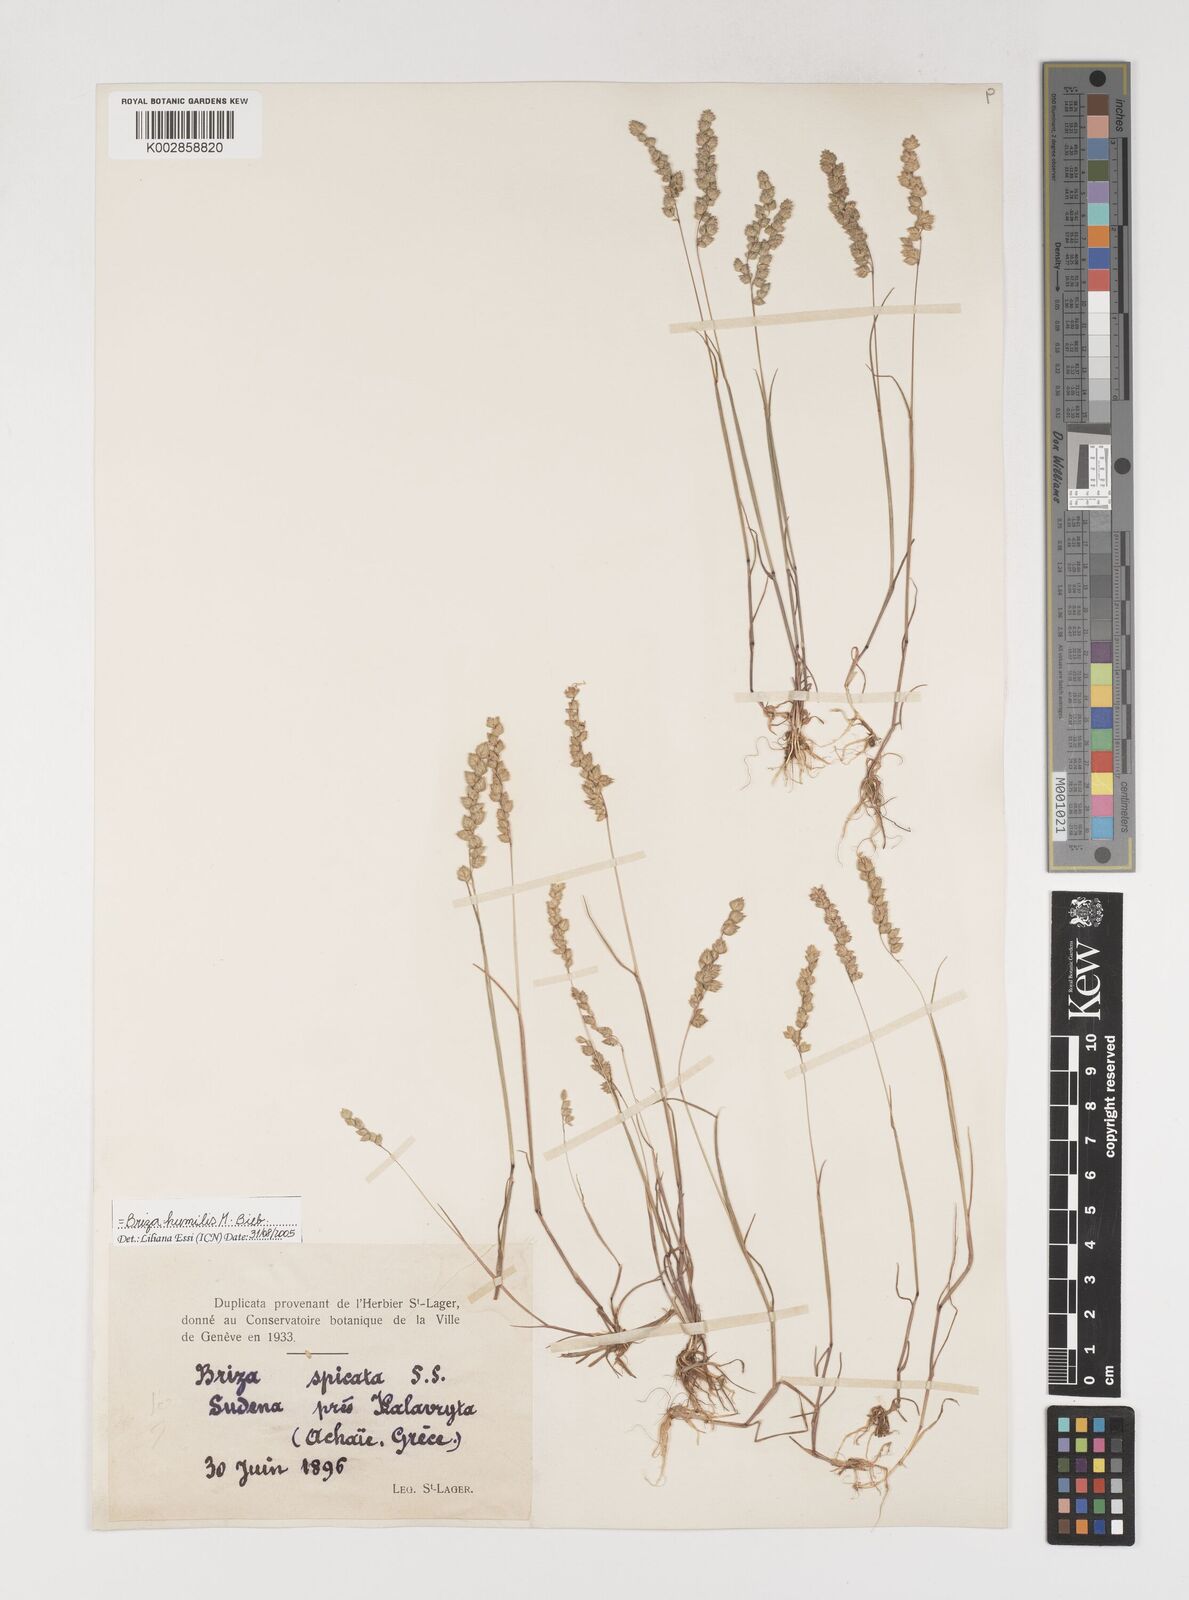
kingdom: Plantae
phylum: Tracheophyta
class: Liliopsida
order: Poales
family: Poaceae
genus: Briza
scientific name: Briza humilis
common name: Spiked quaking grass
